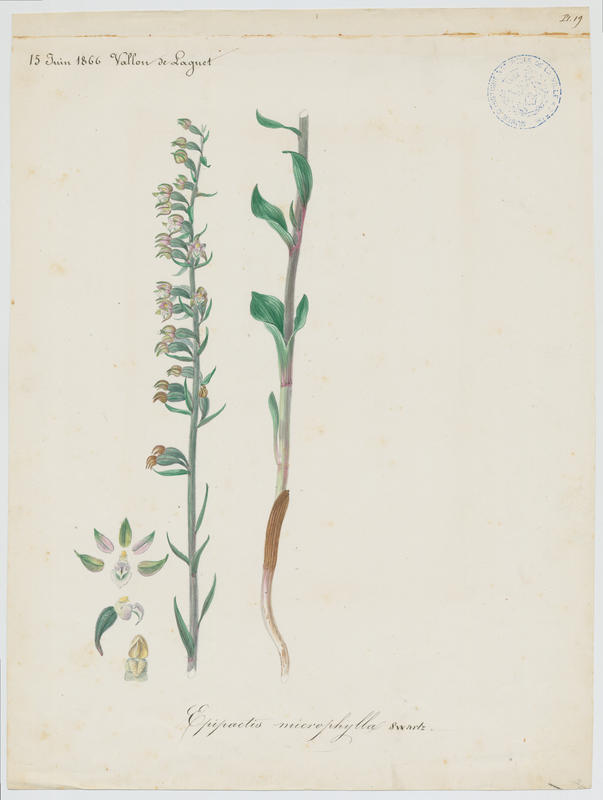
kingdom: Plantae
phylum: Tracheophyta
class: Liliopsida
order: Asparagales
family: Orchidaceae
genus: Epipactis
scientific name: Epipactis microphylla
